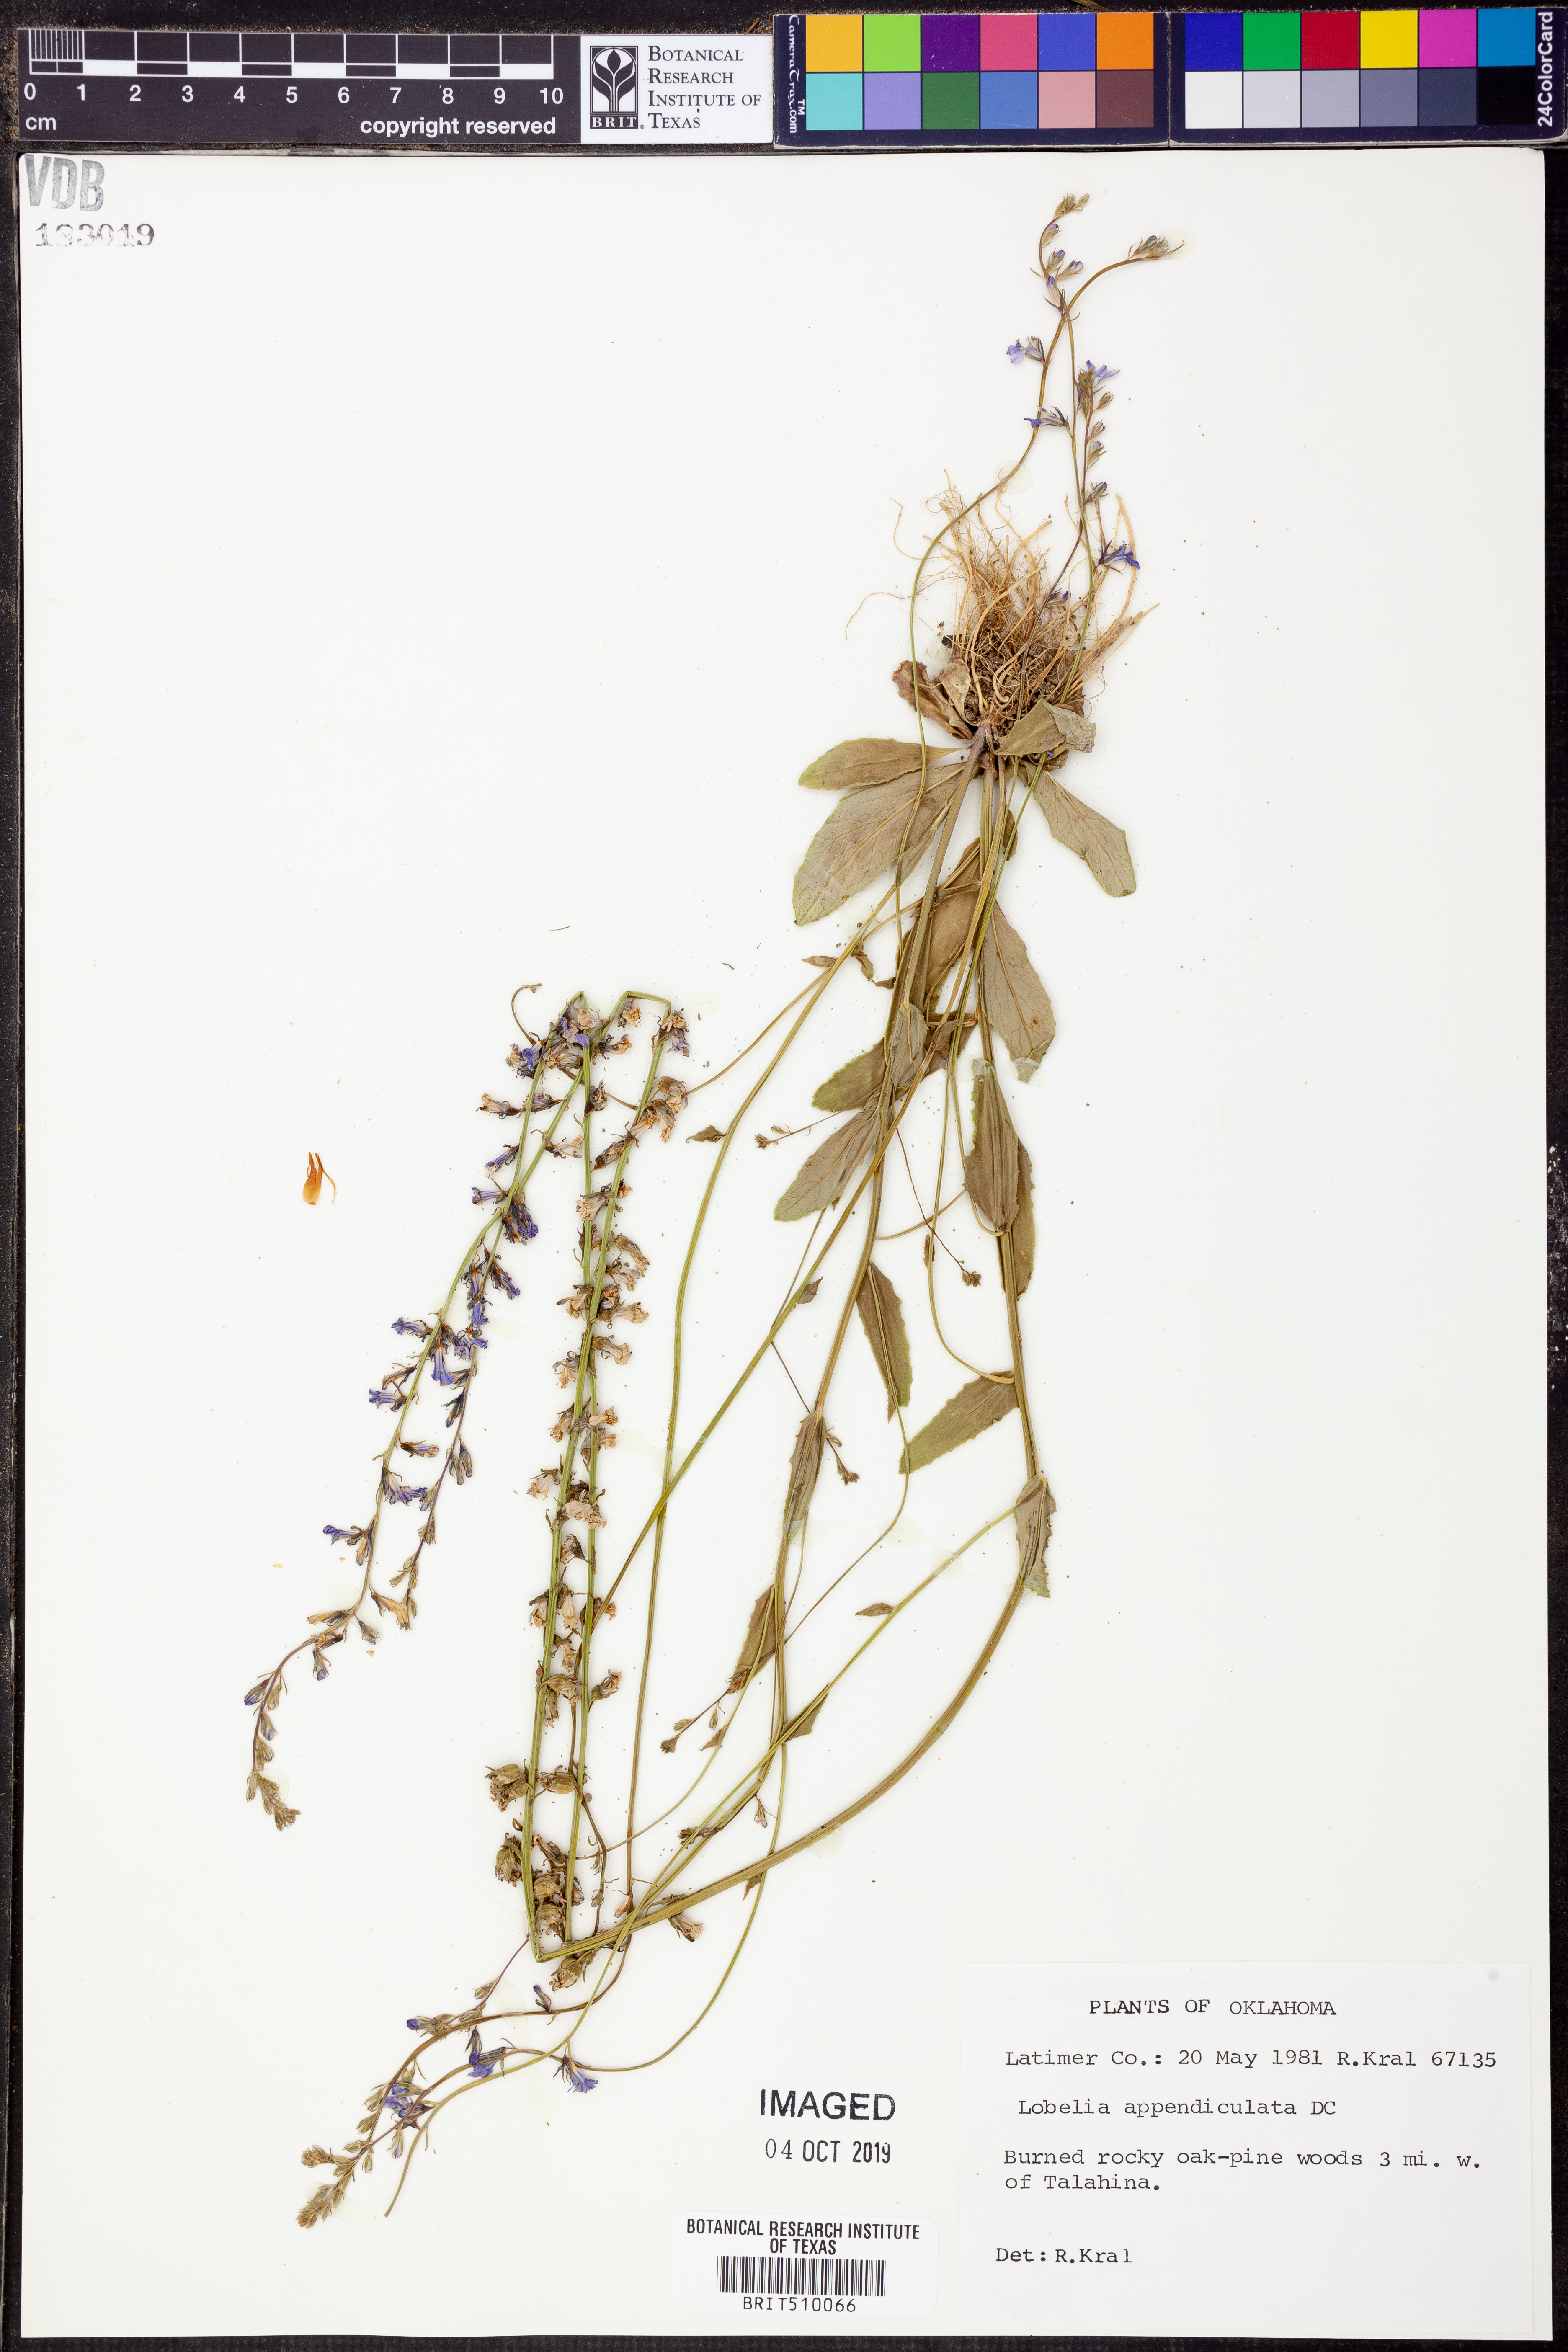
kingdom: Plantae
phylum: Tracheophyta
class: Magnoliopsida
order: Asterales
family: Campanulaceae
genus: Lobelia
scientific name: Lobelia appendiculata
